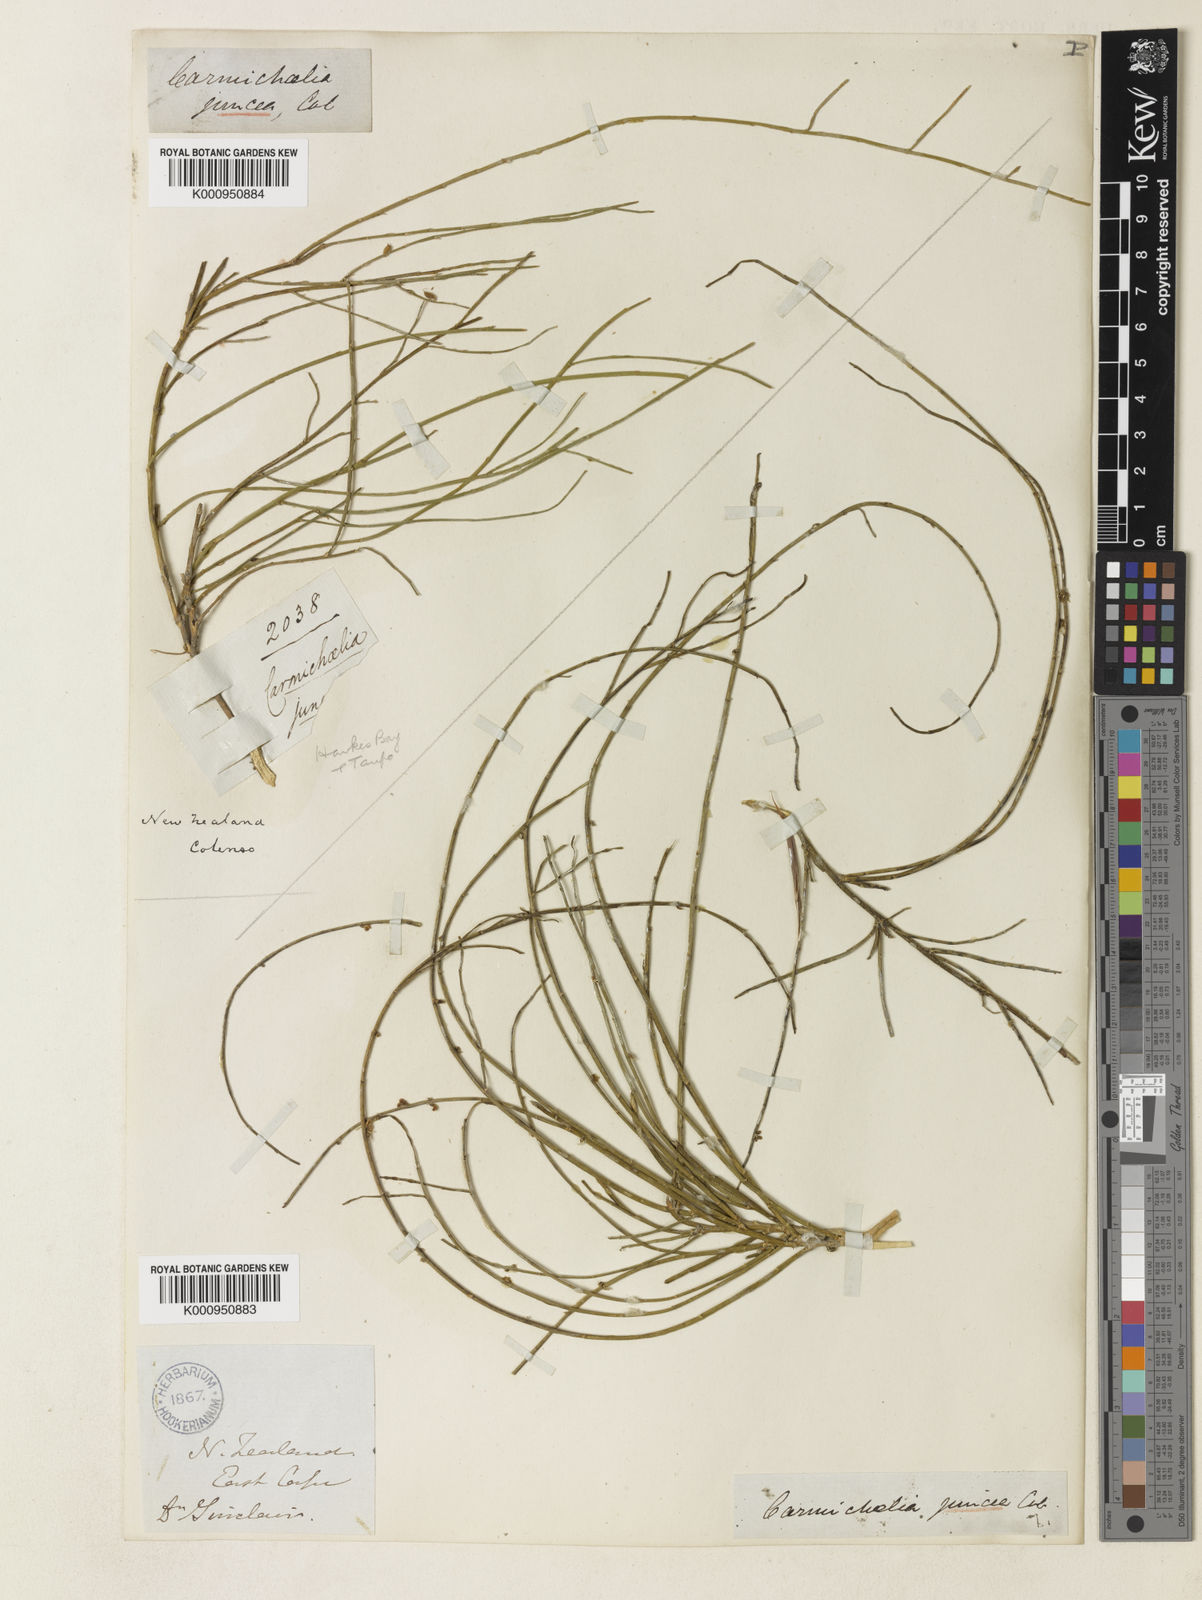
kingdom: Plantae
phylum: Tracheophyta
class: Magnoliopsida
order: Fabales
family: Fabaceae
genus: Carmichaelia
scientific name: Carmichaelia juncea
